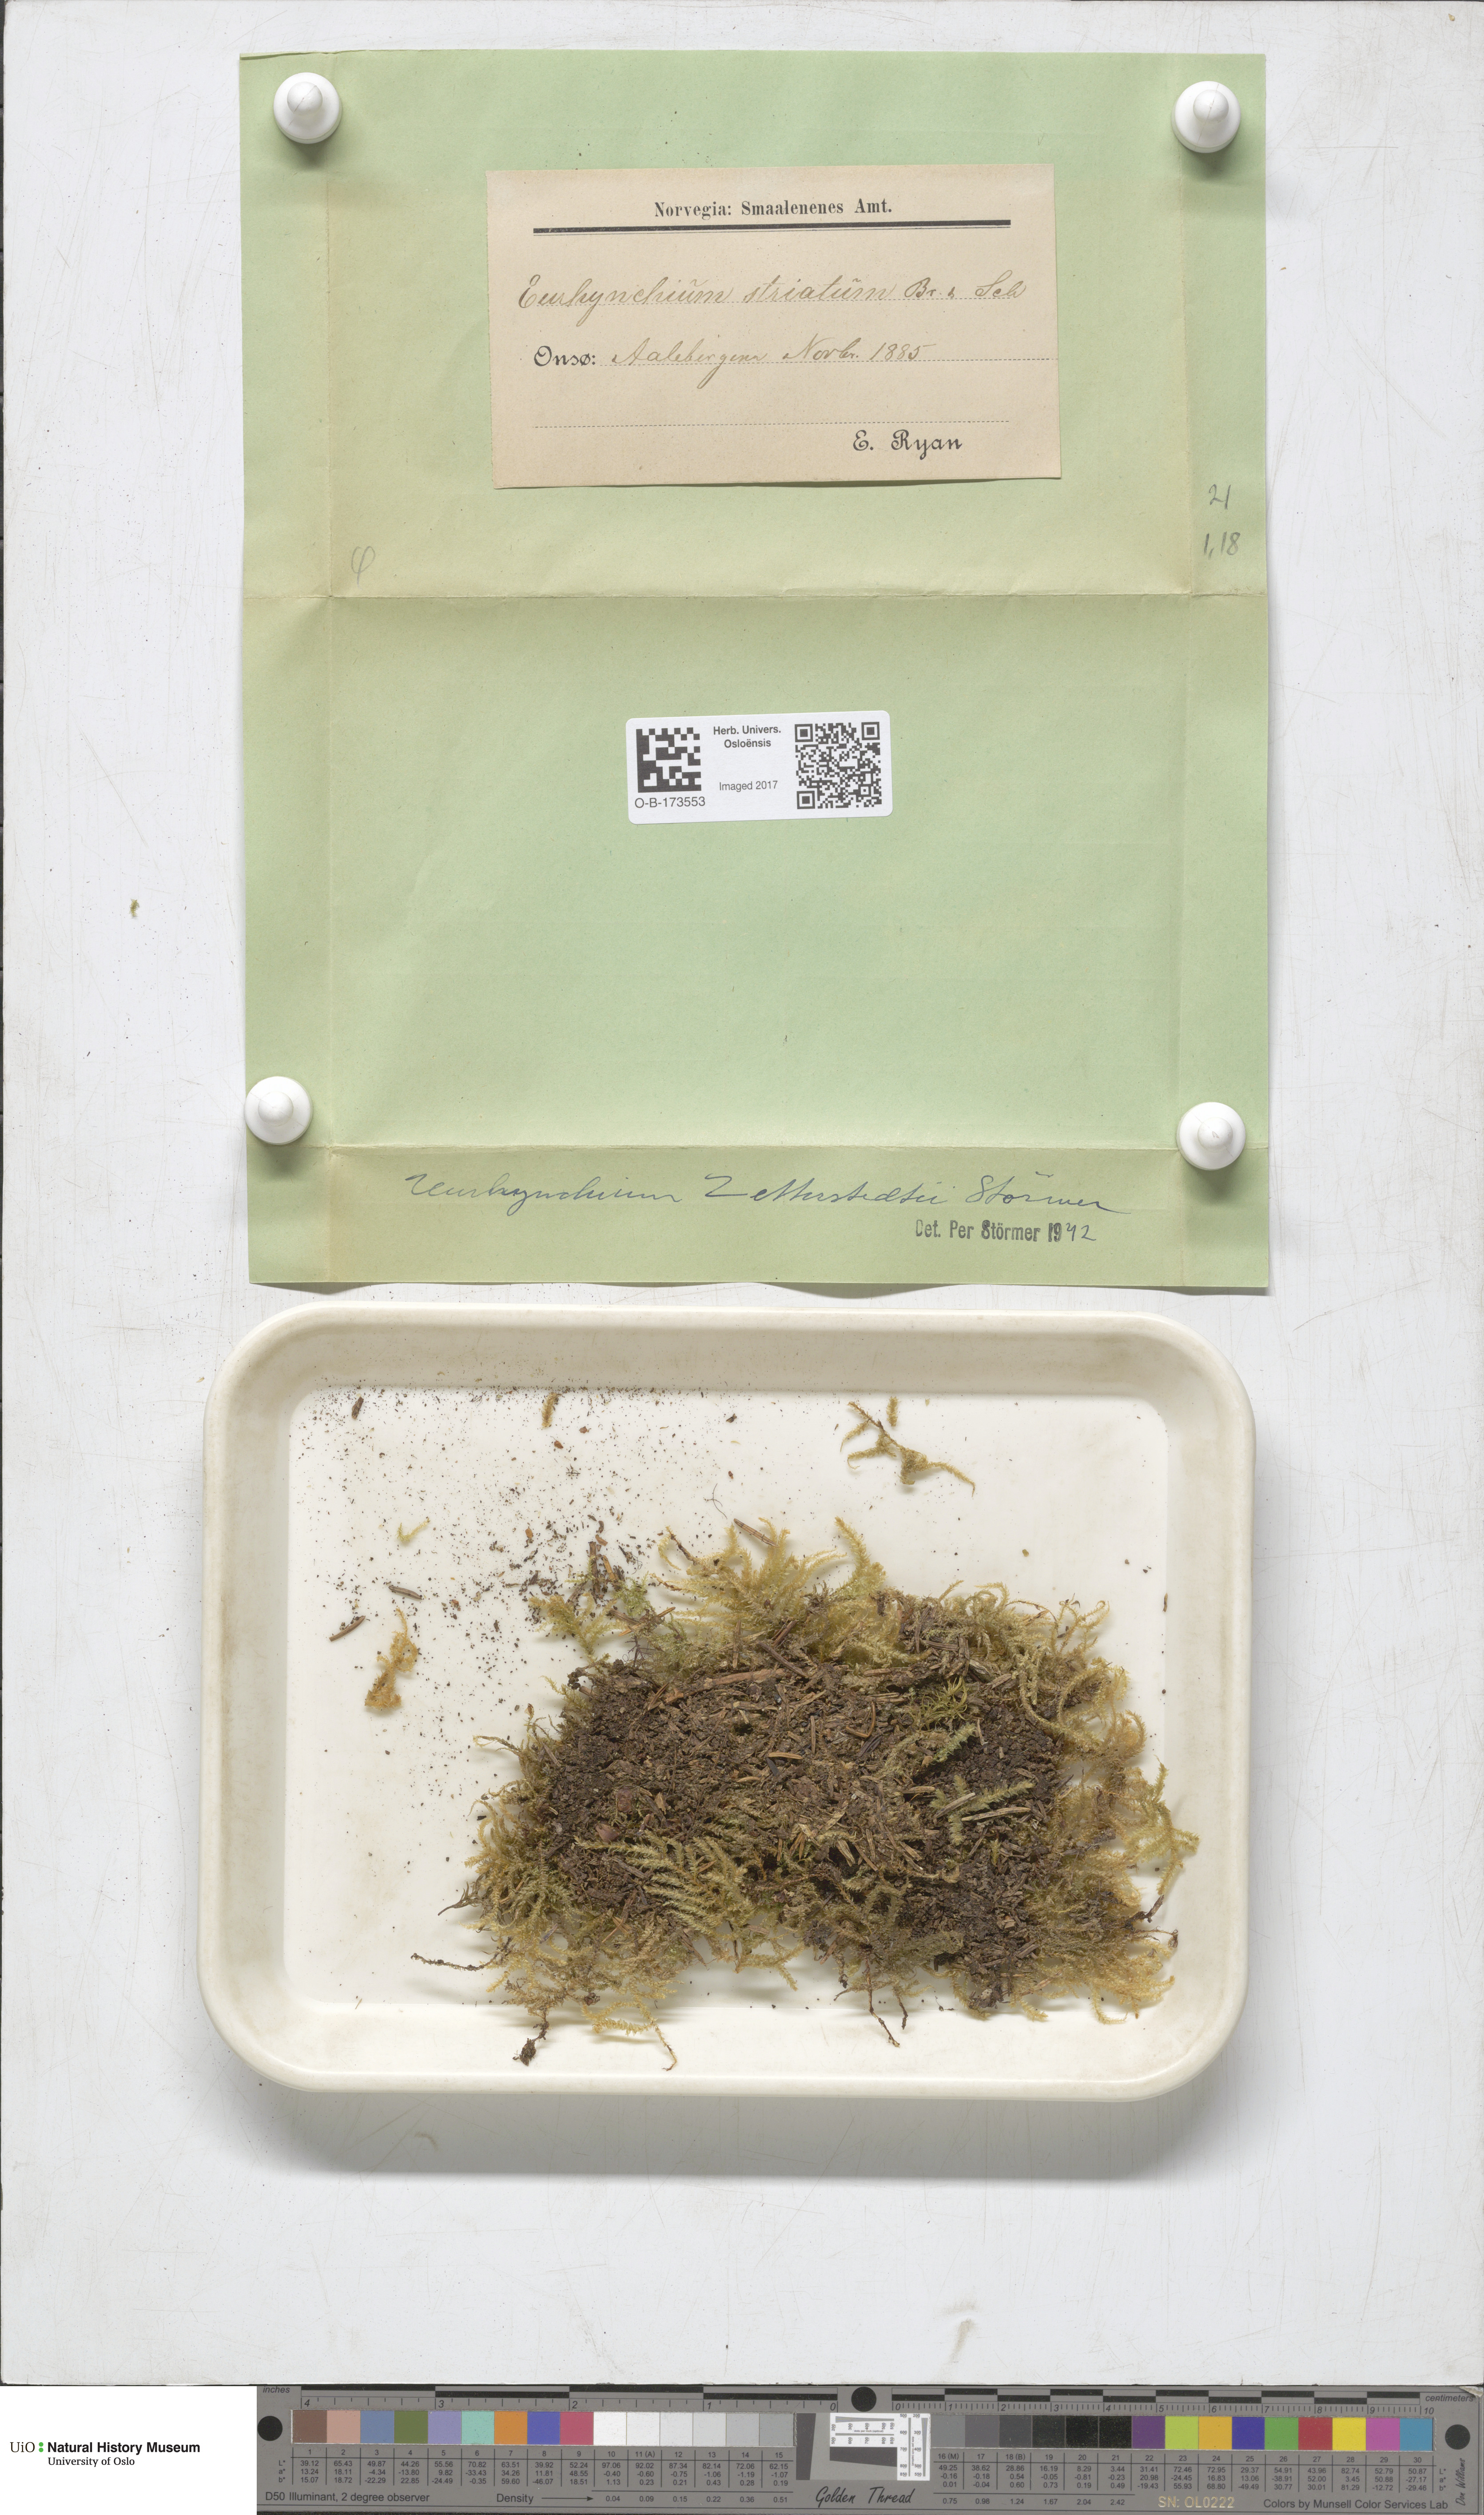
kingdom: Plantae
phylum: Bryophyta
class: Bryopsida
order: Hypnales
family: Brachytheciaceae
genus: Eurhynchium
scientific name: Eurhynchium angustirete
